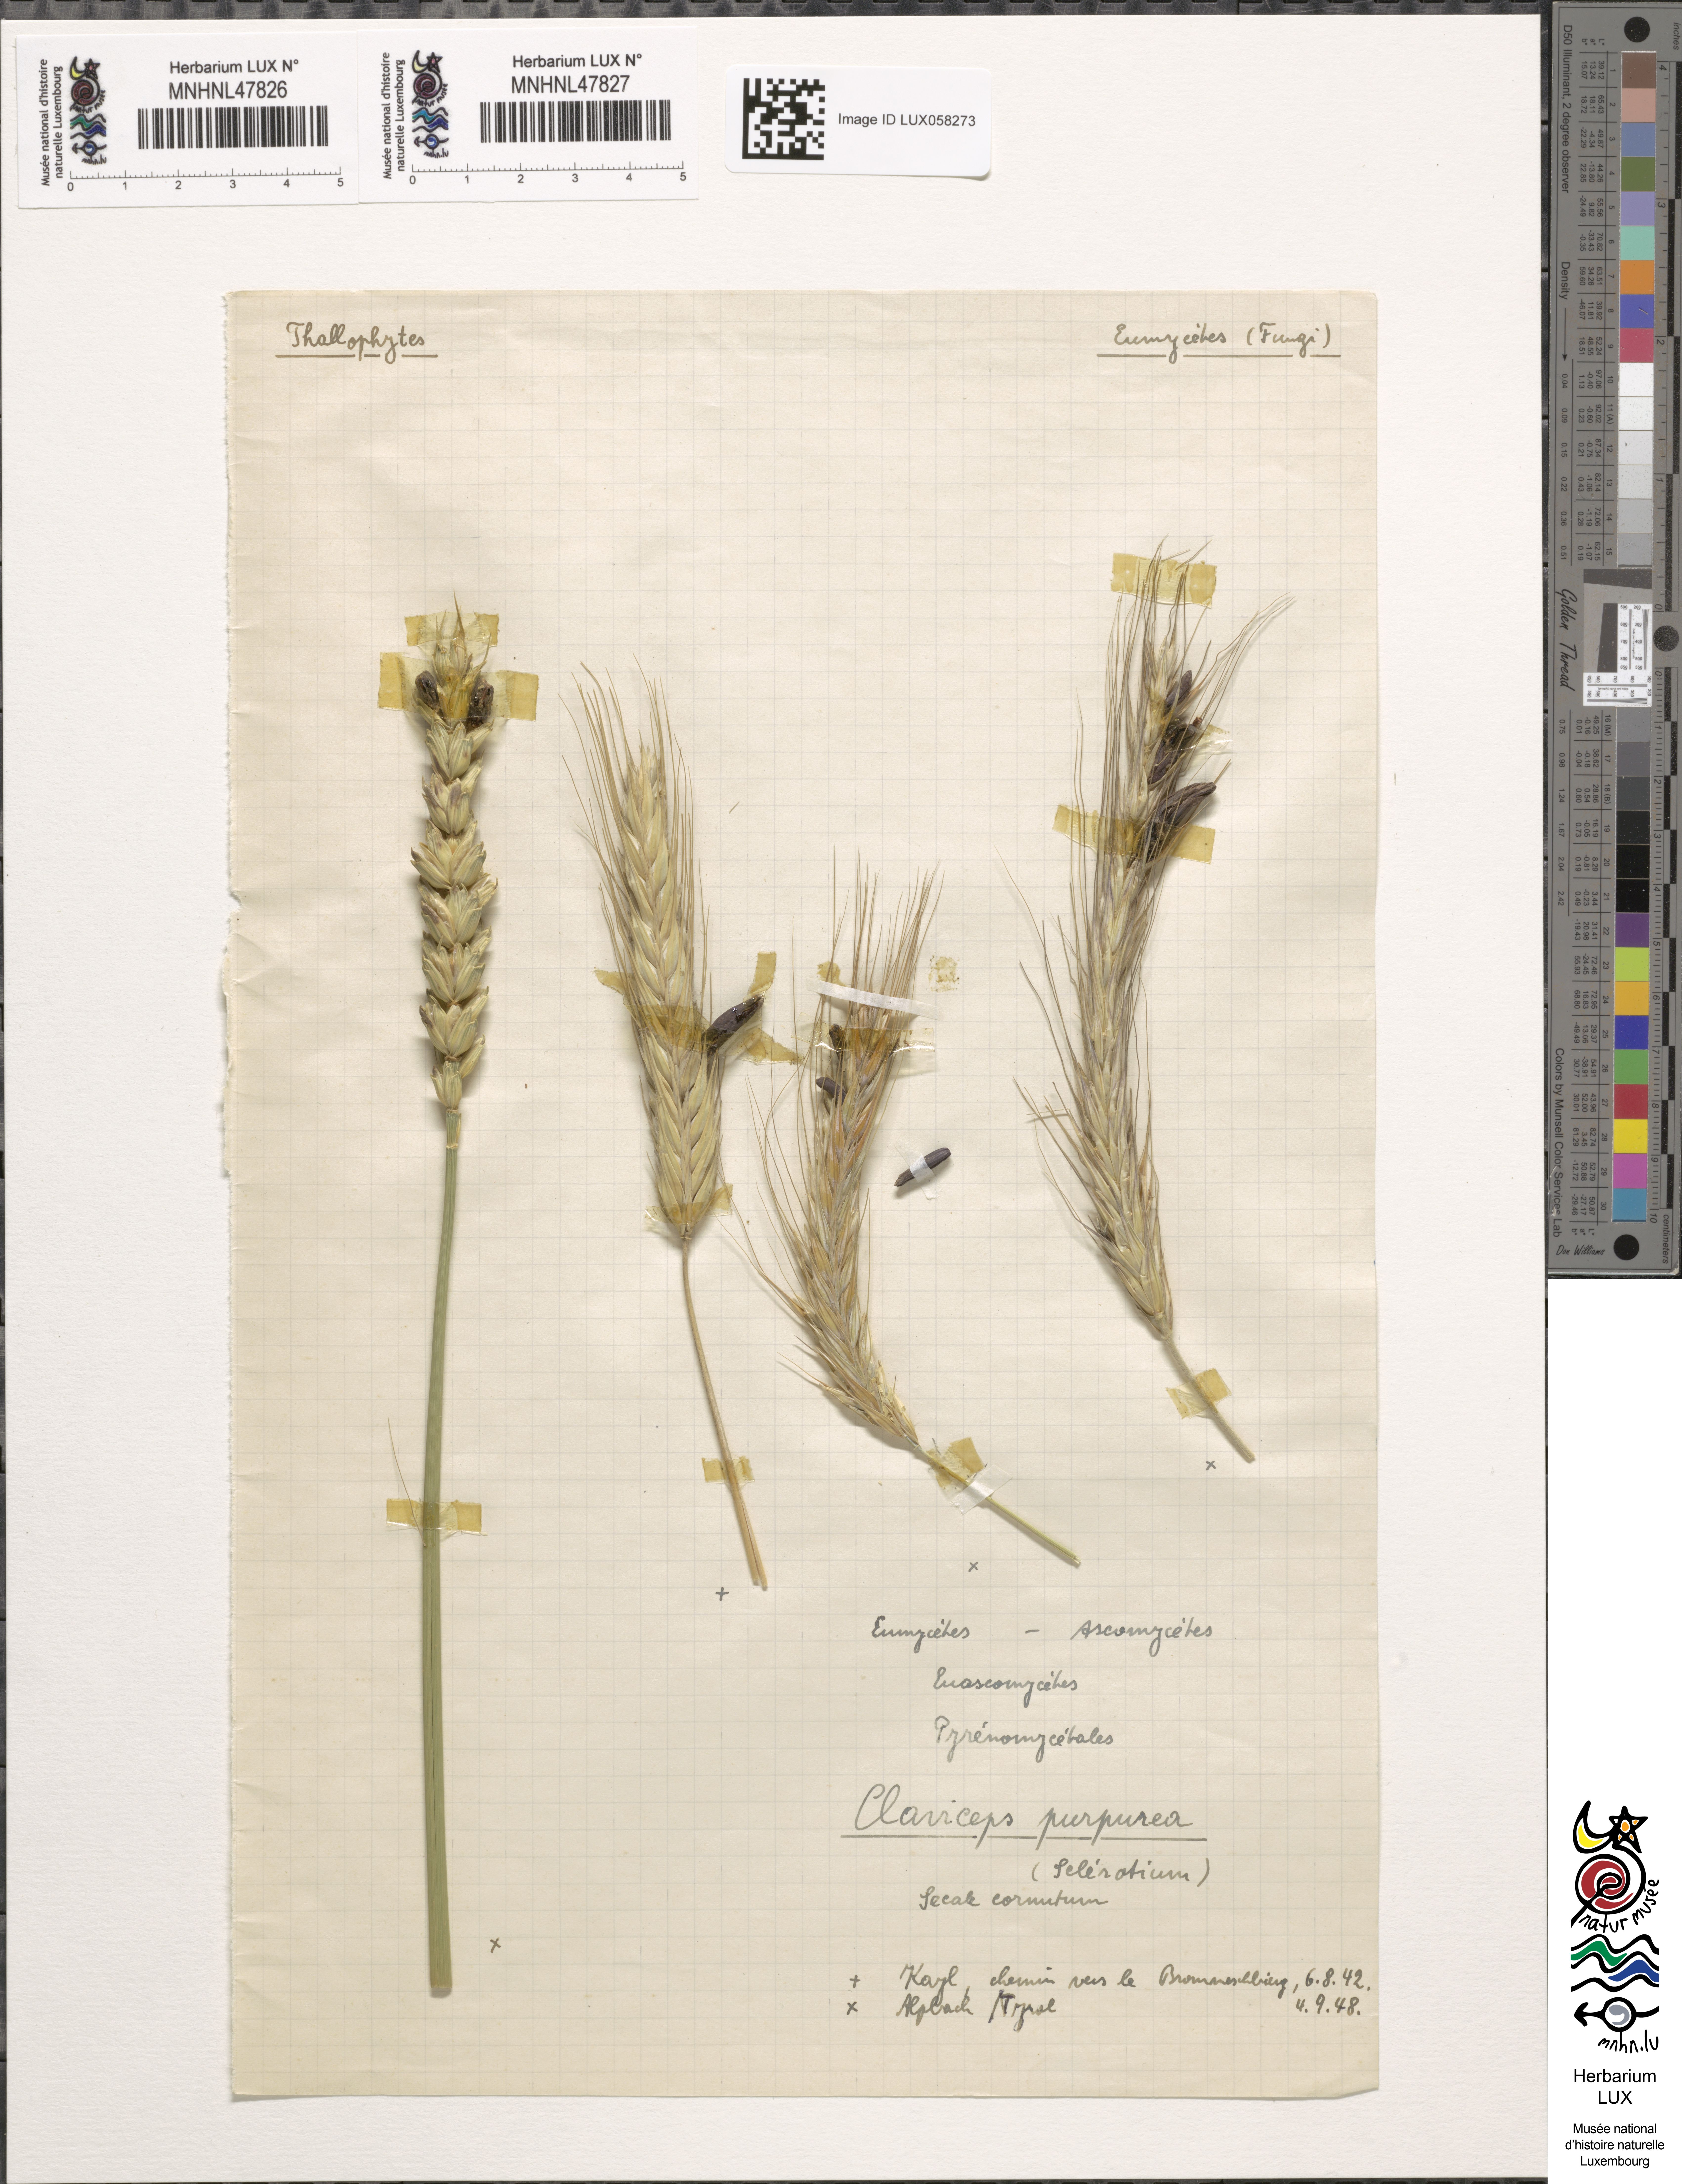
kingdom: Fungi
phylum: Ascomycota
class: Sordariomycetes
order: Hypocreales
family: Clavicipitaceae
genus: Claviceps
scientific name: Claviceps purpurea
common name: Rye ergot
